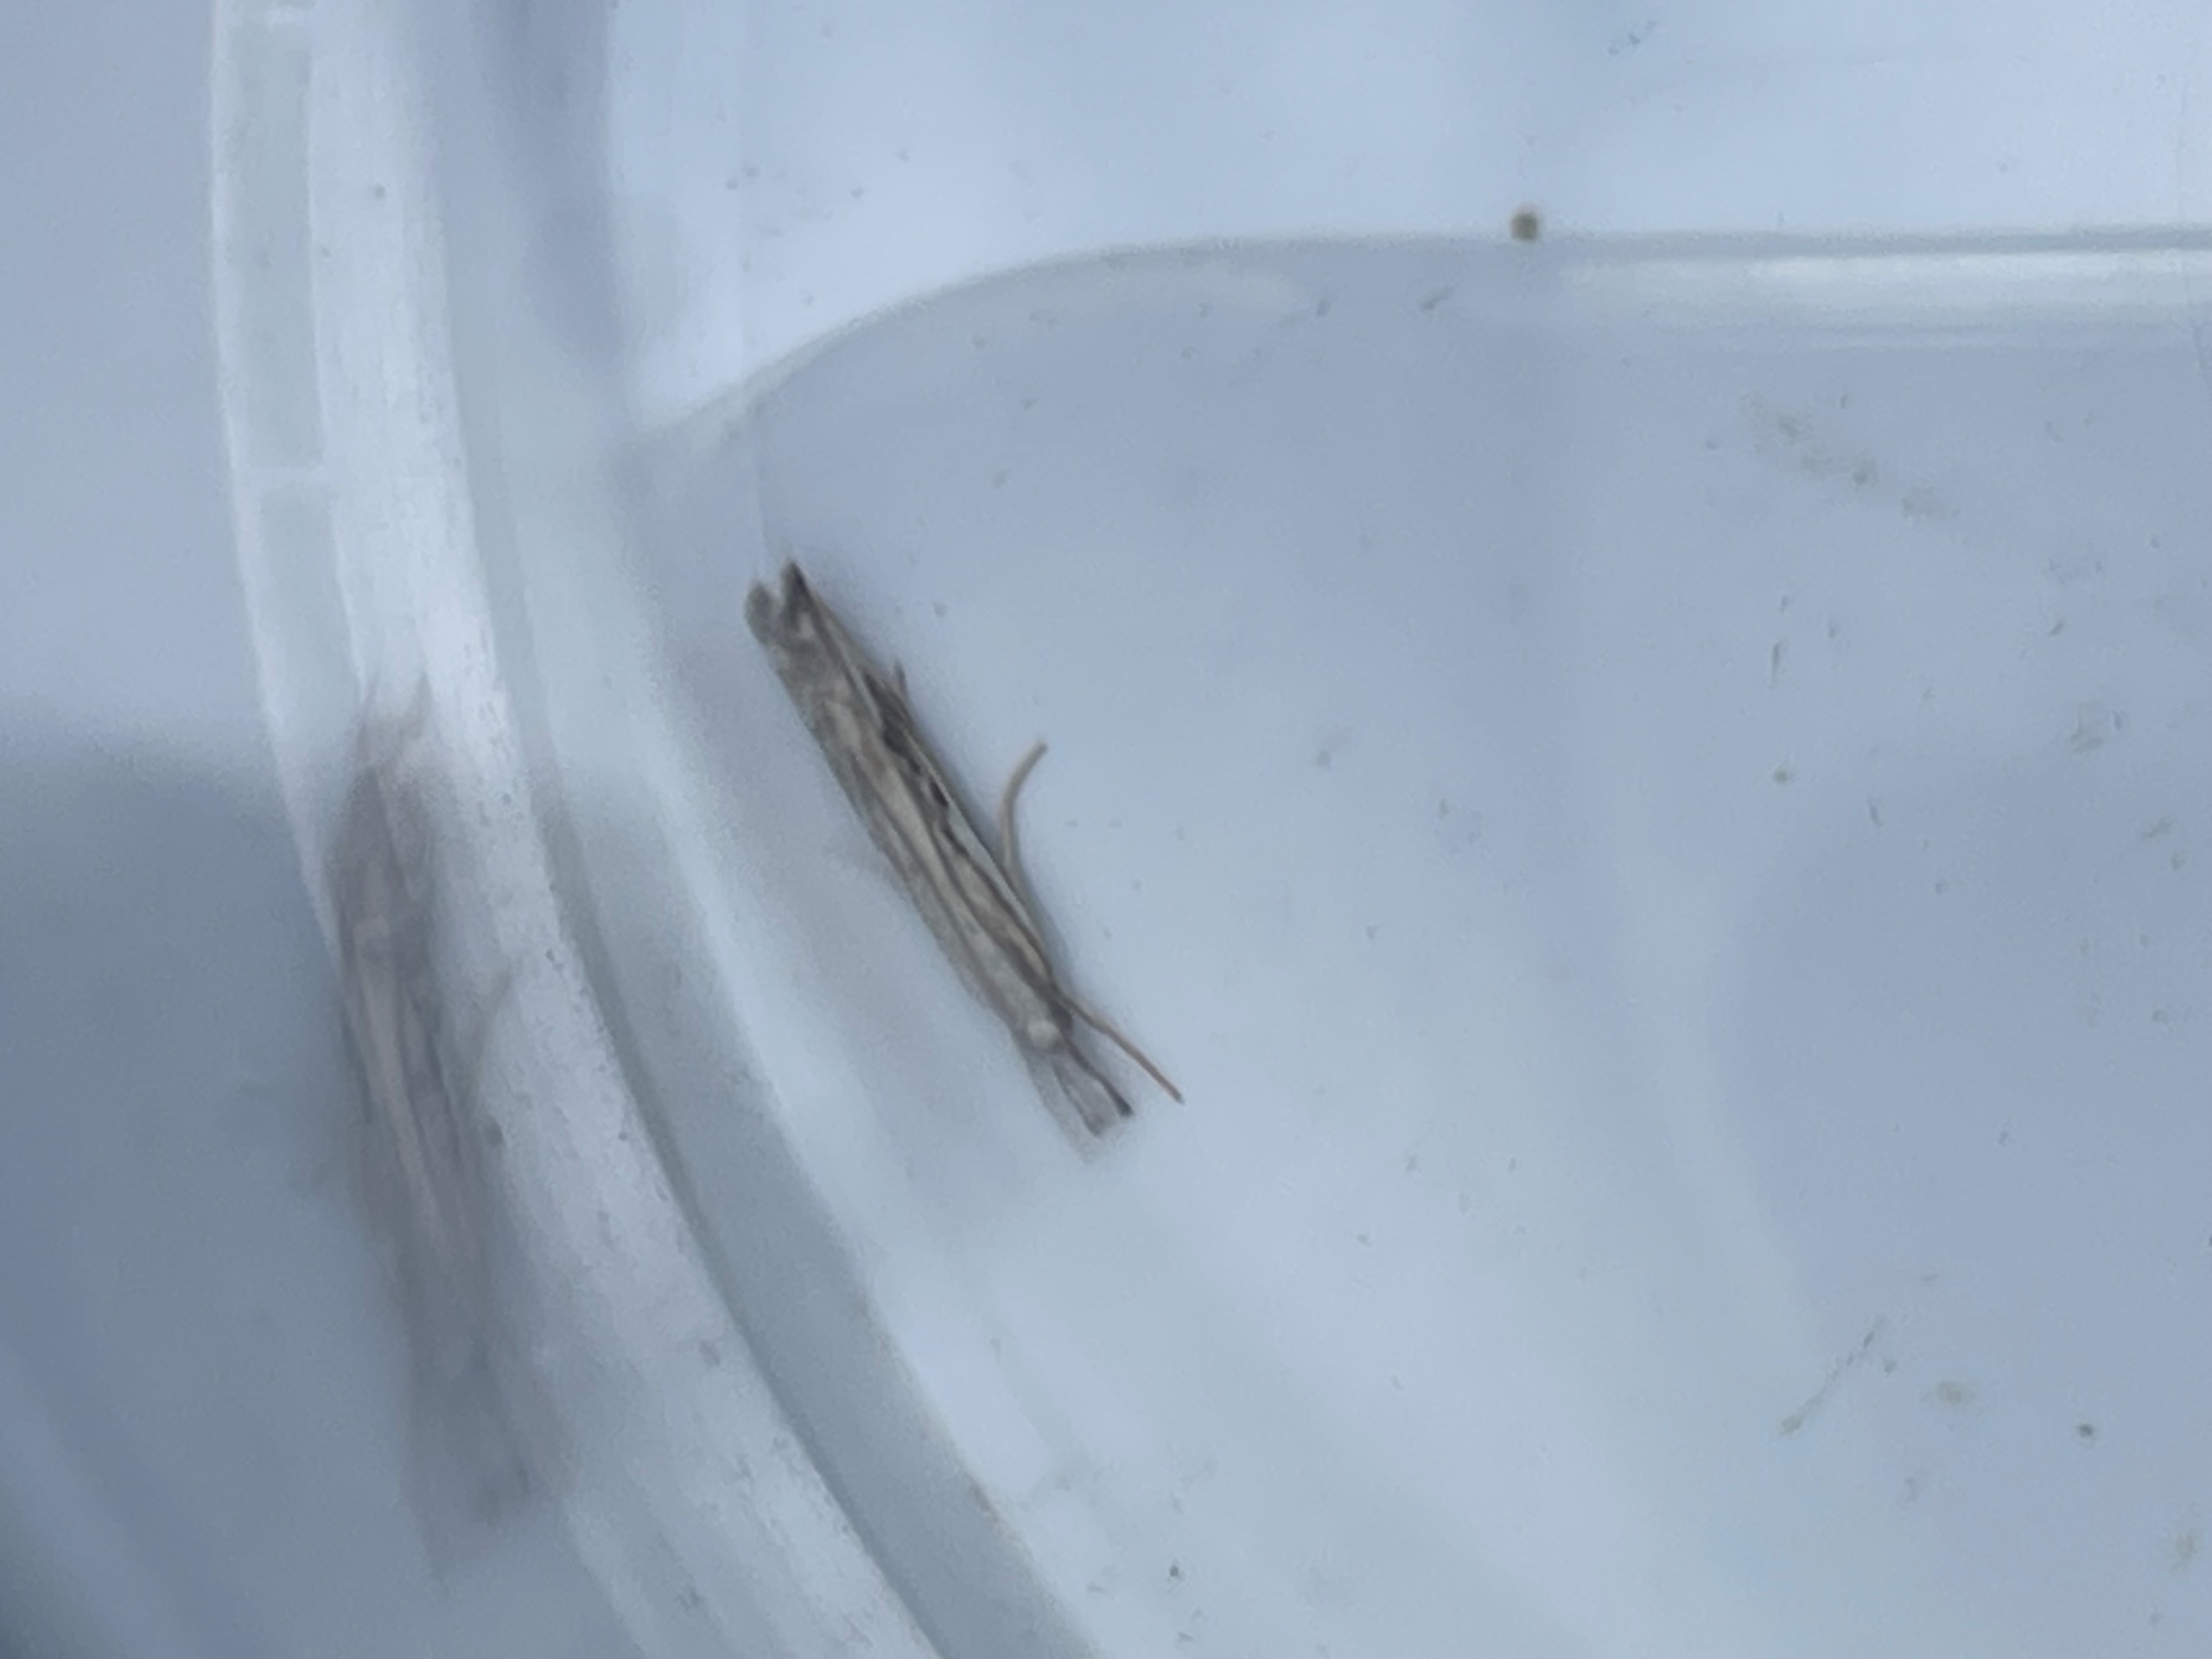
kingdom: Animalia
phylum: Arthropoda
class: Insecta
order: Lepidoptera
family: Crambidae
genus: Catoptria
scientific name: Catoptria falsella
